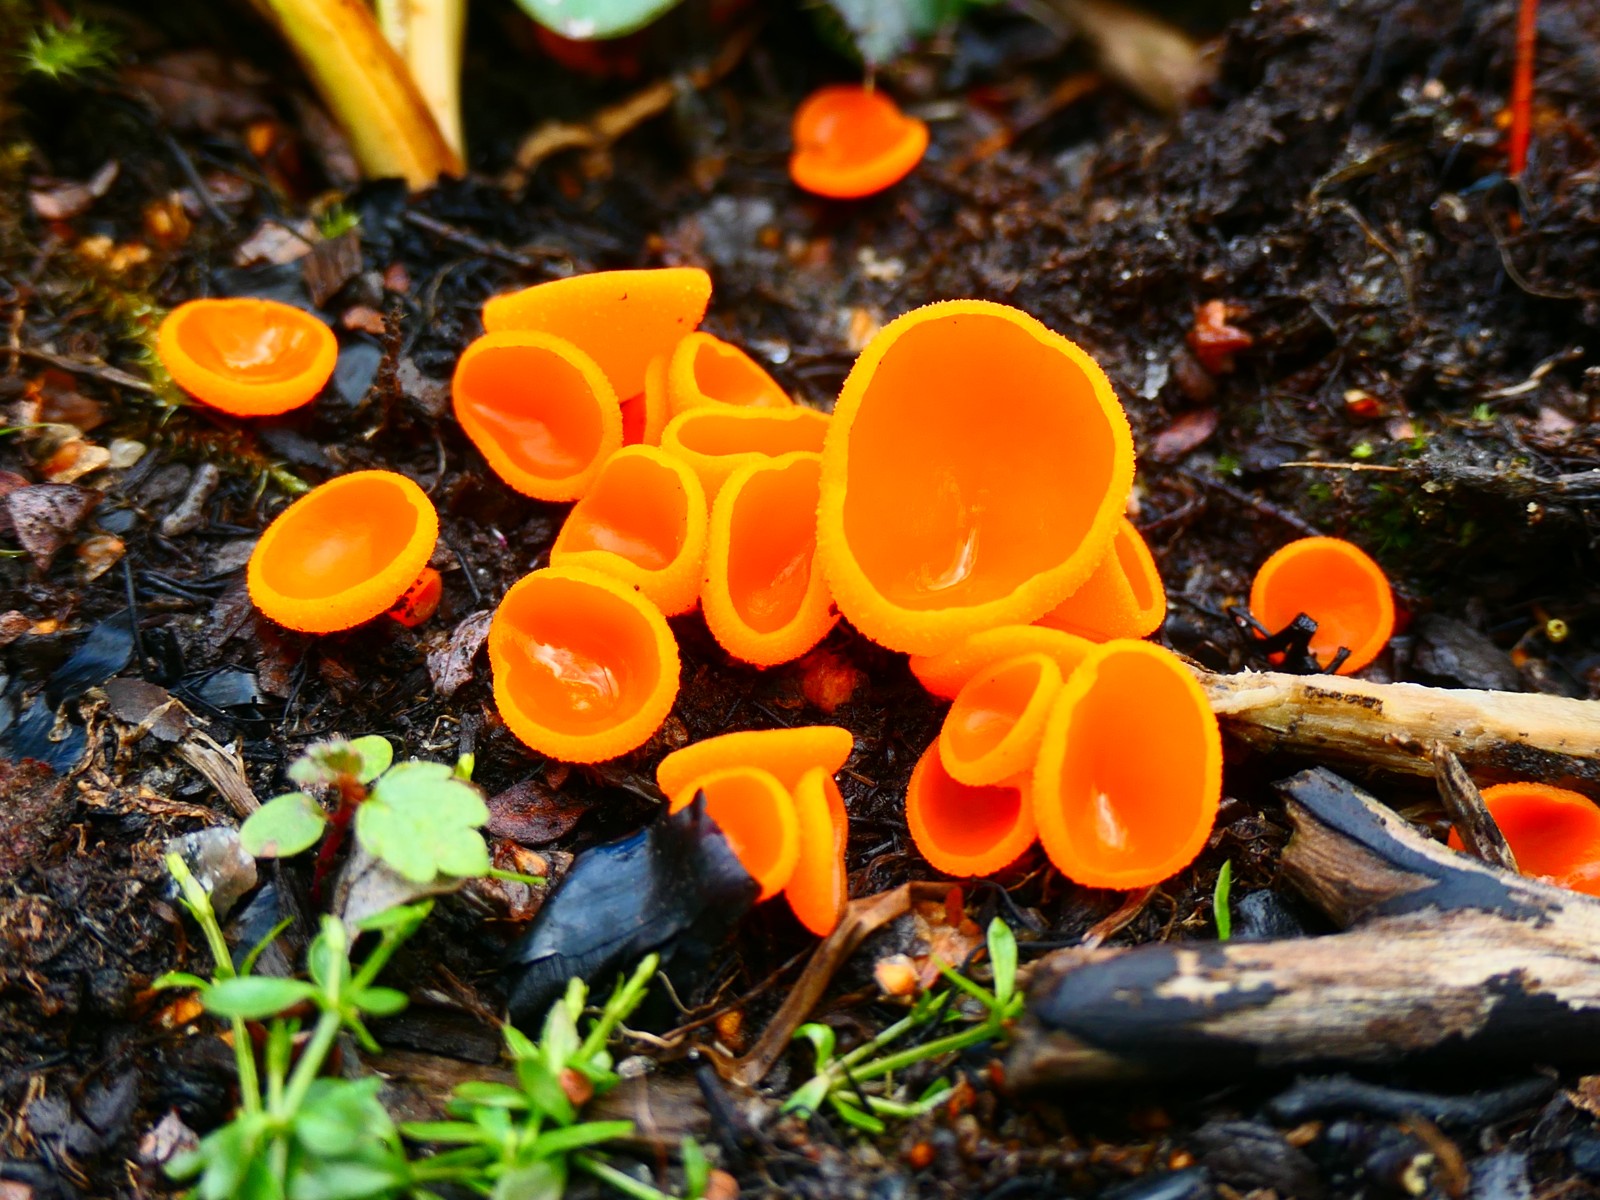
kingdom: Fungi
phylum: Ascomycota
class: Pezizomycetes
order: Pezizales
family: Pyronemataceae
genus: Aleuria
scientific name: Aleuria aurantia
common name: almindelig orangebæger
